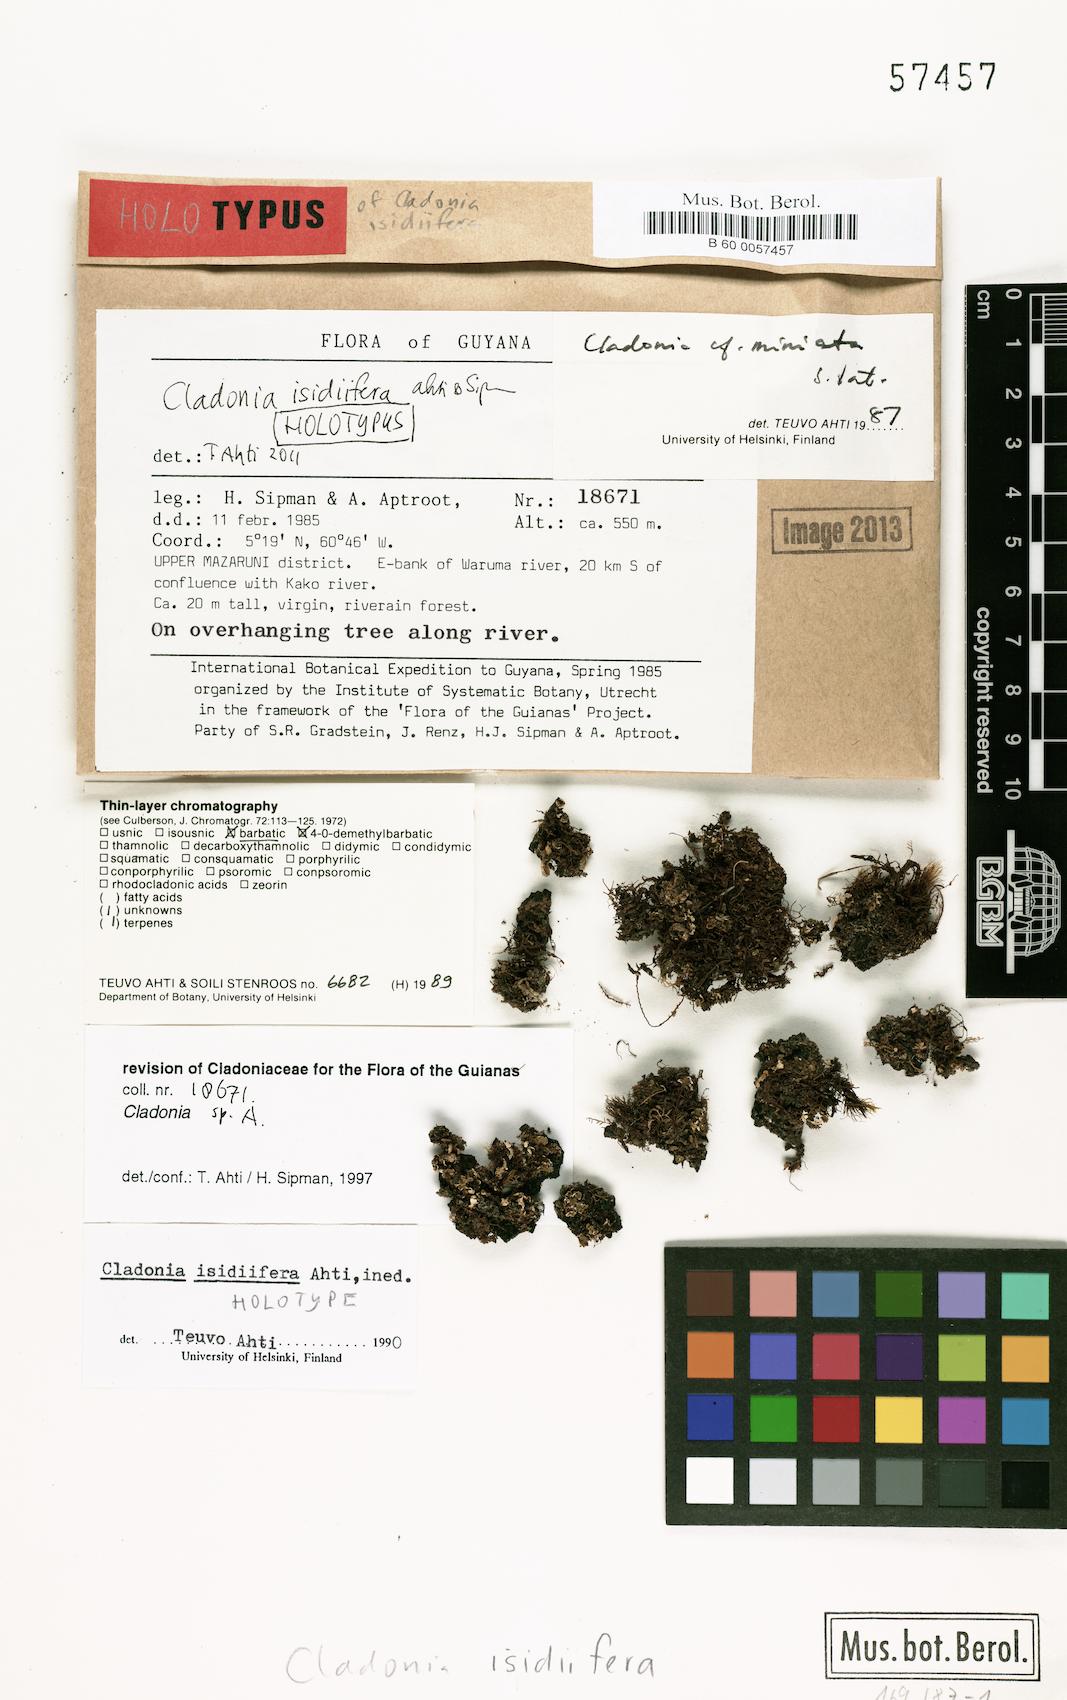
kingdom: Fungi
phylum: Ascomycota
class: Lecanoromycetes
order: Lecanorales
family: Cladoniaceae
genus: Cladonia
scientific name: Cladonia isidiifera
